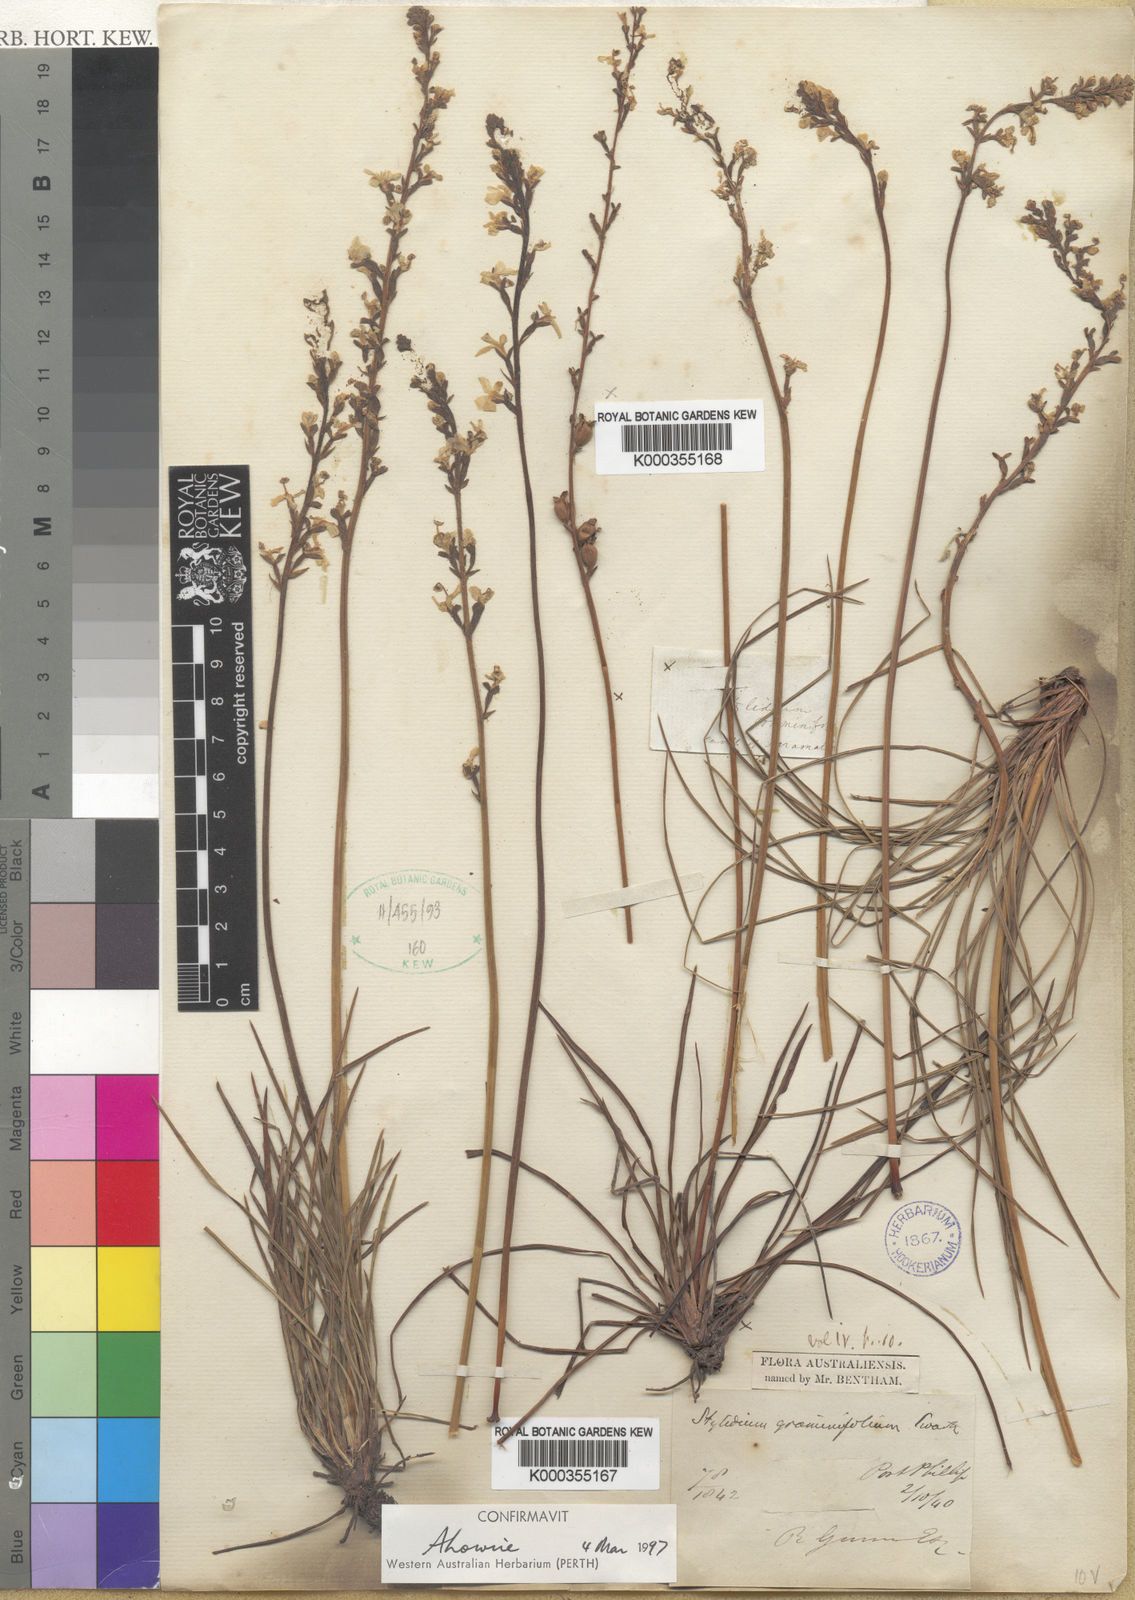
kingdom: Plantae
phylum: Tracheophyta
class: Magnoliopsida
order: Asterales
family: Stylidiaceae
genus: Stylidium
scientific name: Stylidium graminifolium
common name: Grass triggerplant
